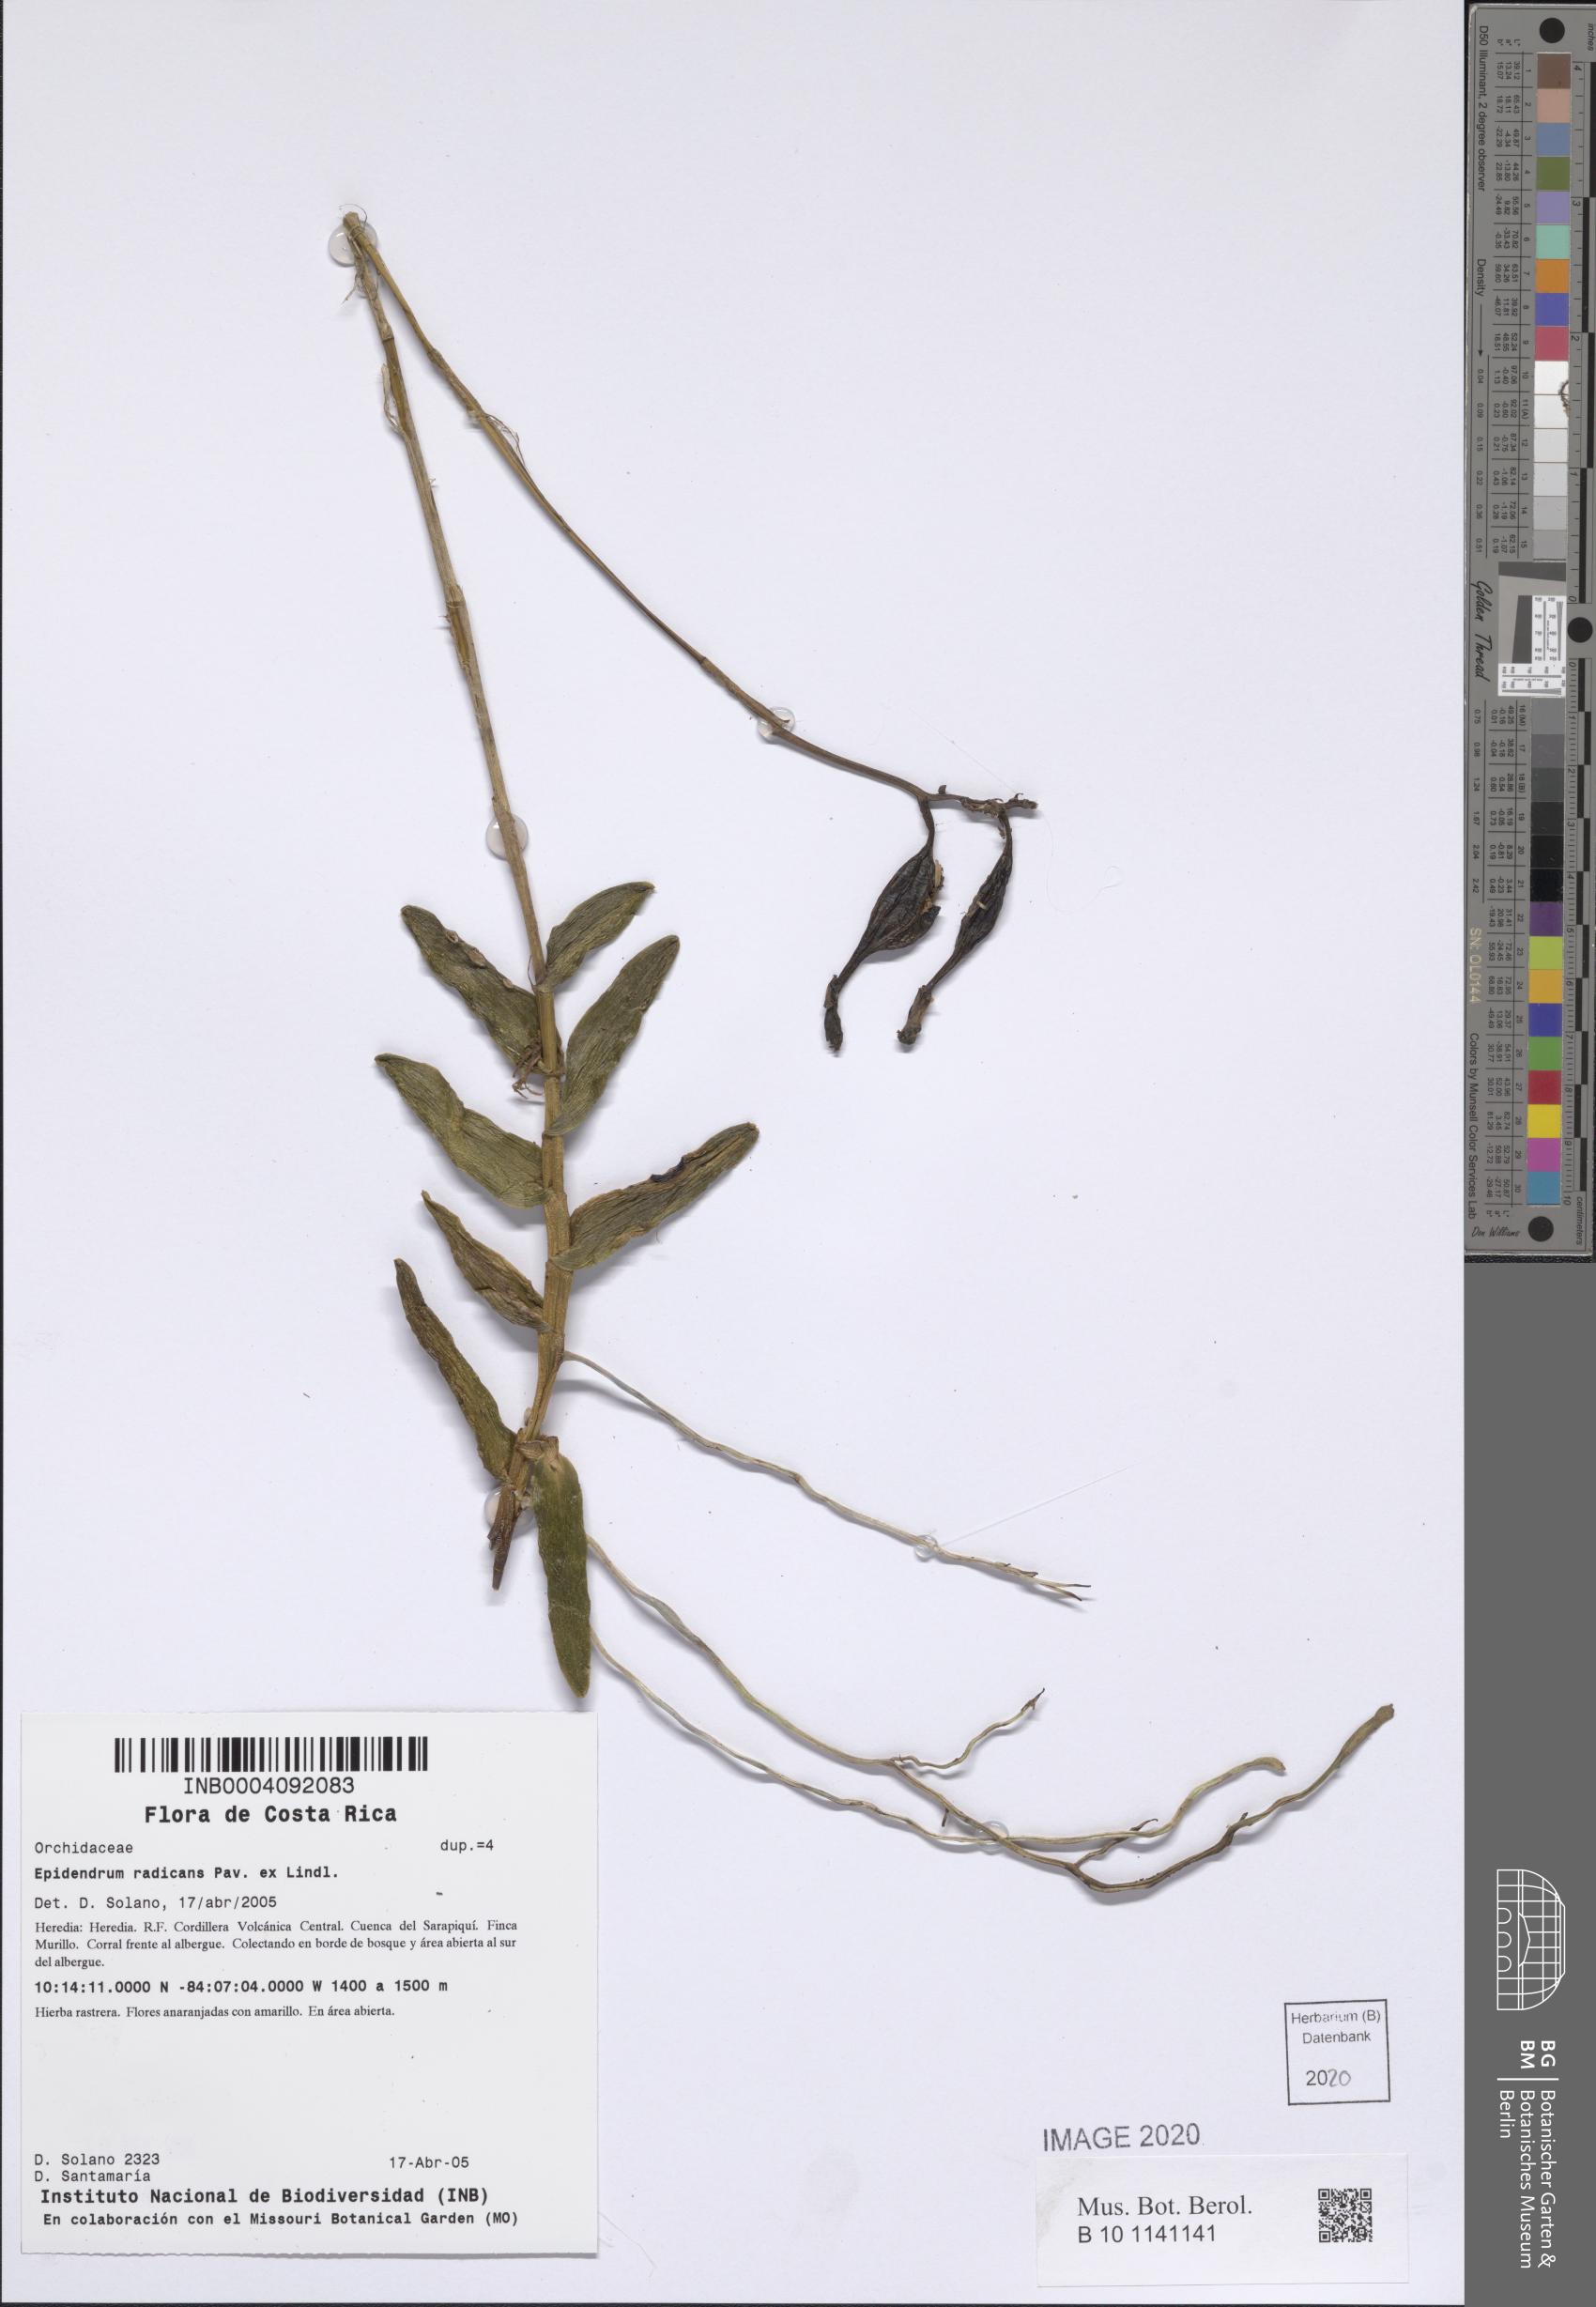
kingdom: Plantae
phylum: Tracheophyta
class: Liliopsida
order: Asparagales
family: Orchidaceae
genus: Epidendrum
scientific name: Epidendrum radicans
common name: Fire star orchid
